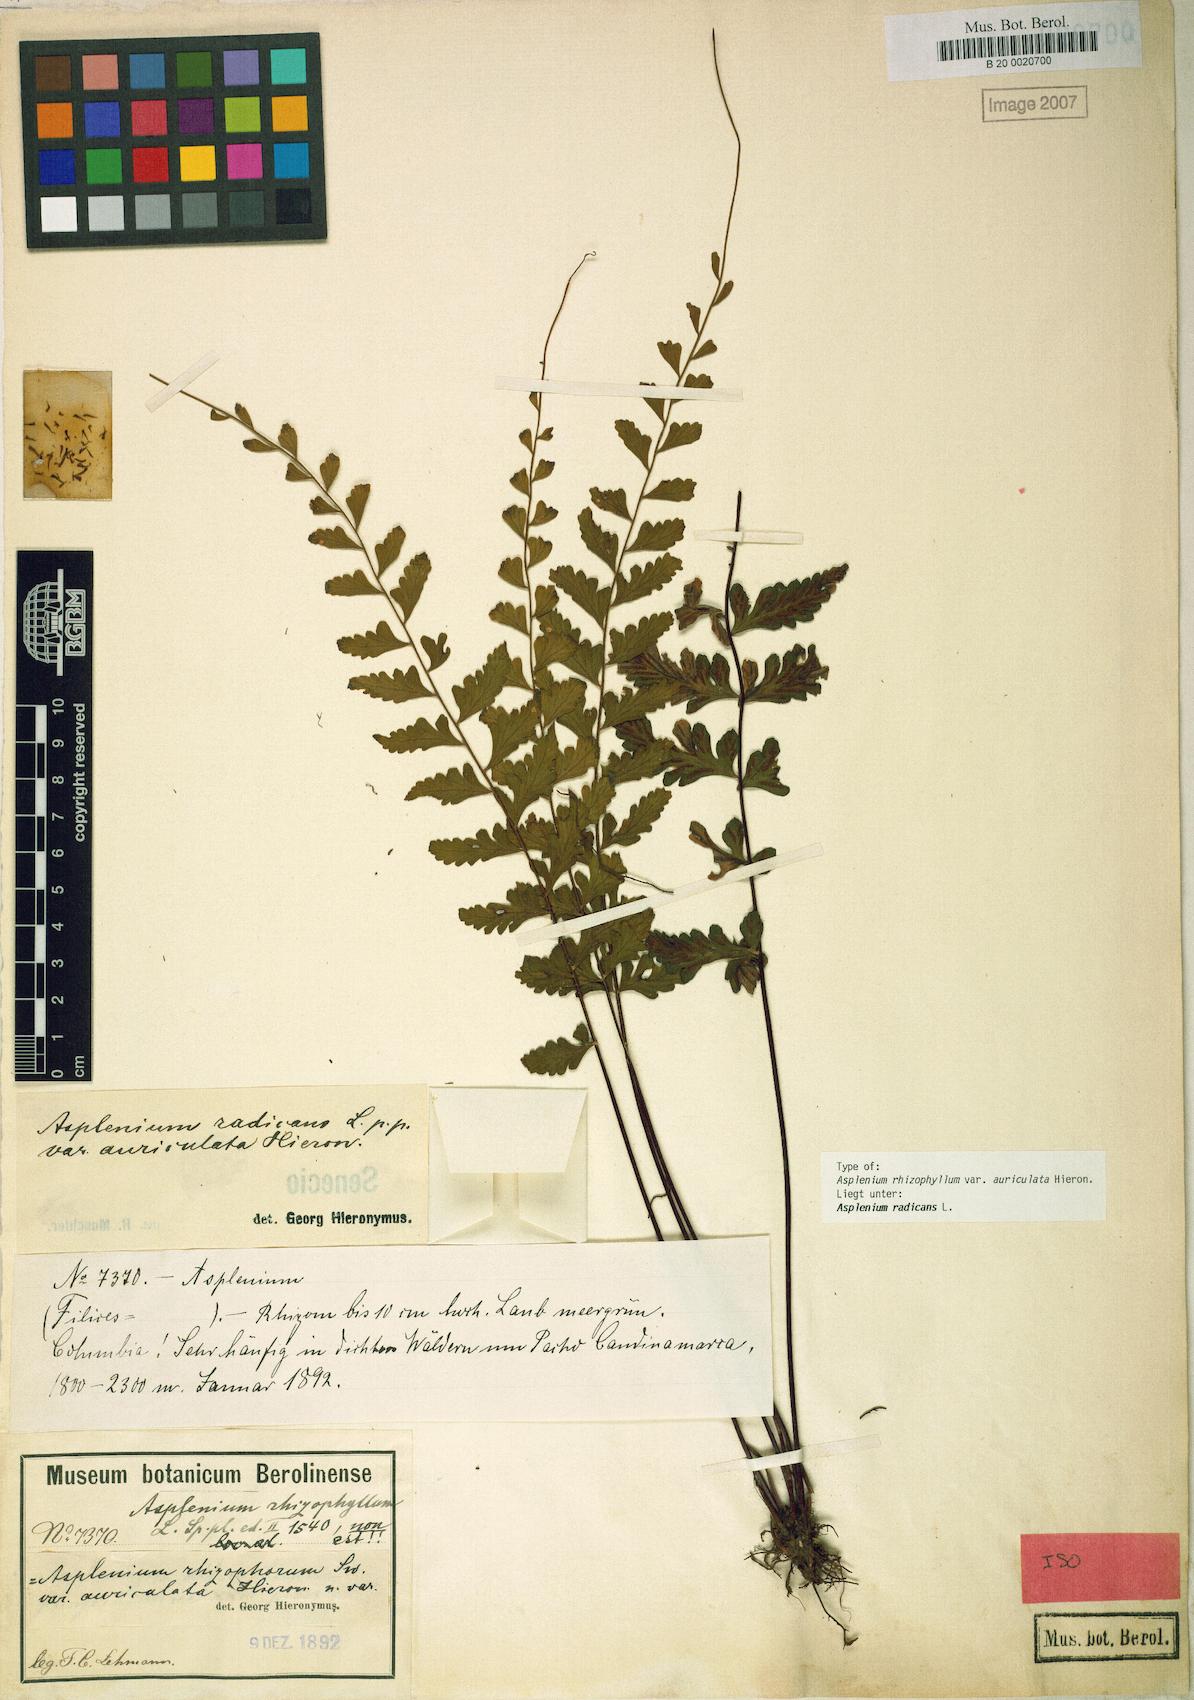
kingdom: Plantae
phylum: Tracheophyta
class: Polypodiopsida
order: Polypodiales
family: Aspleniaceae
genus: Asplenium
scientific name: Asplenium radicans
